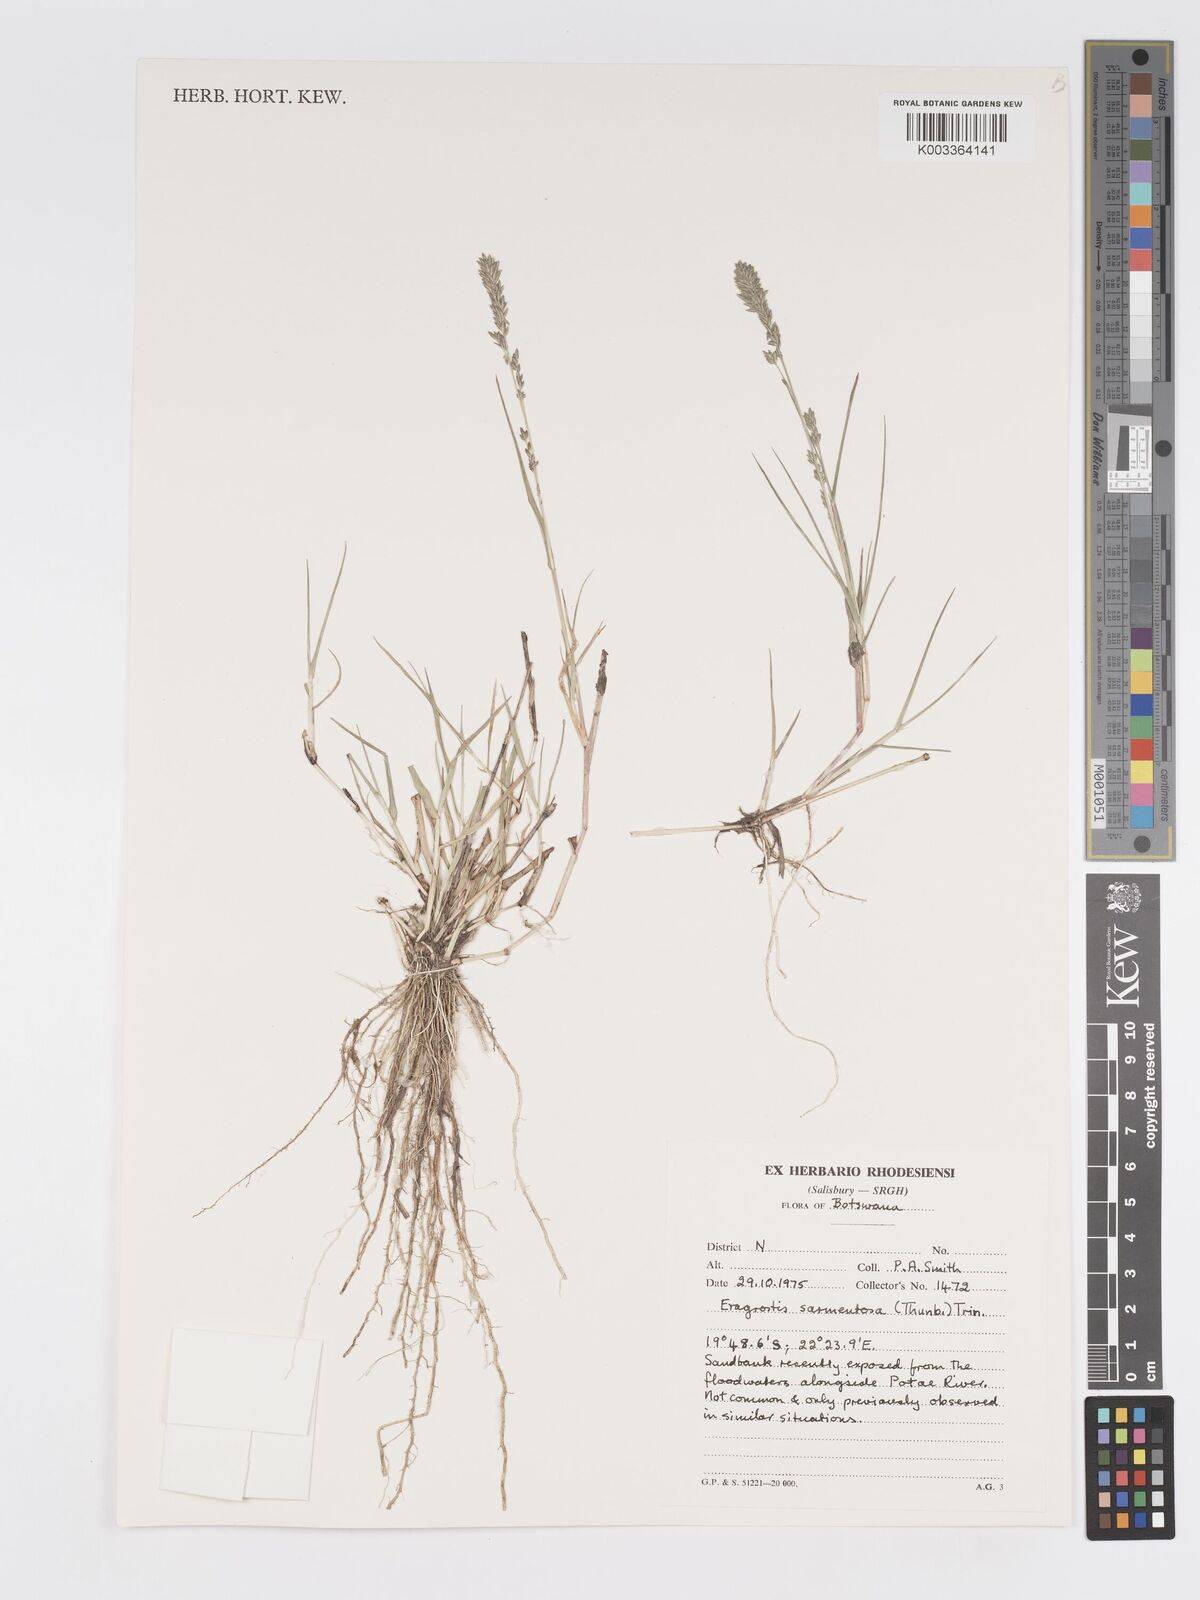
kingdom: Plantae
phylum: Tracheophyta
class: Liliopsida
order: Poales
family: Poaceae
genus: Eragrostis
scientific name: Eragrostis sarmentosa
